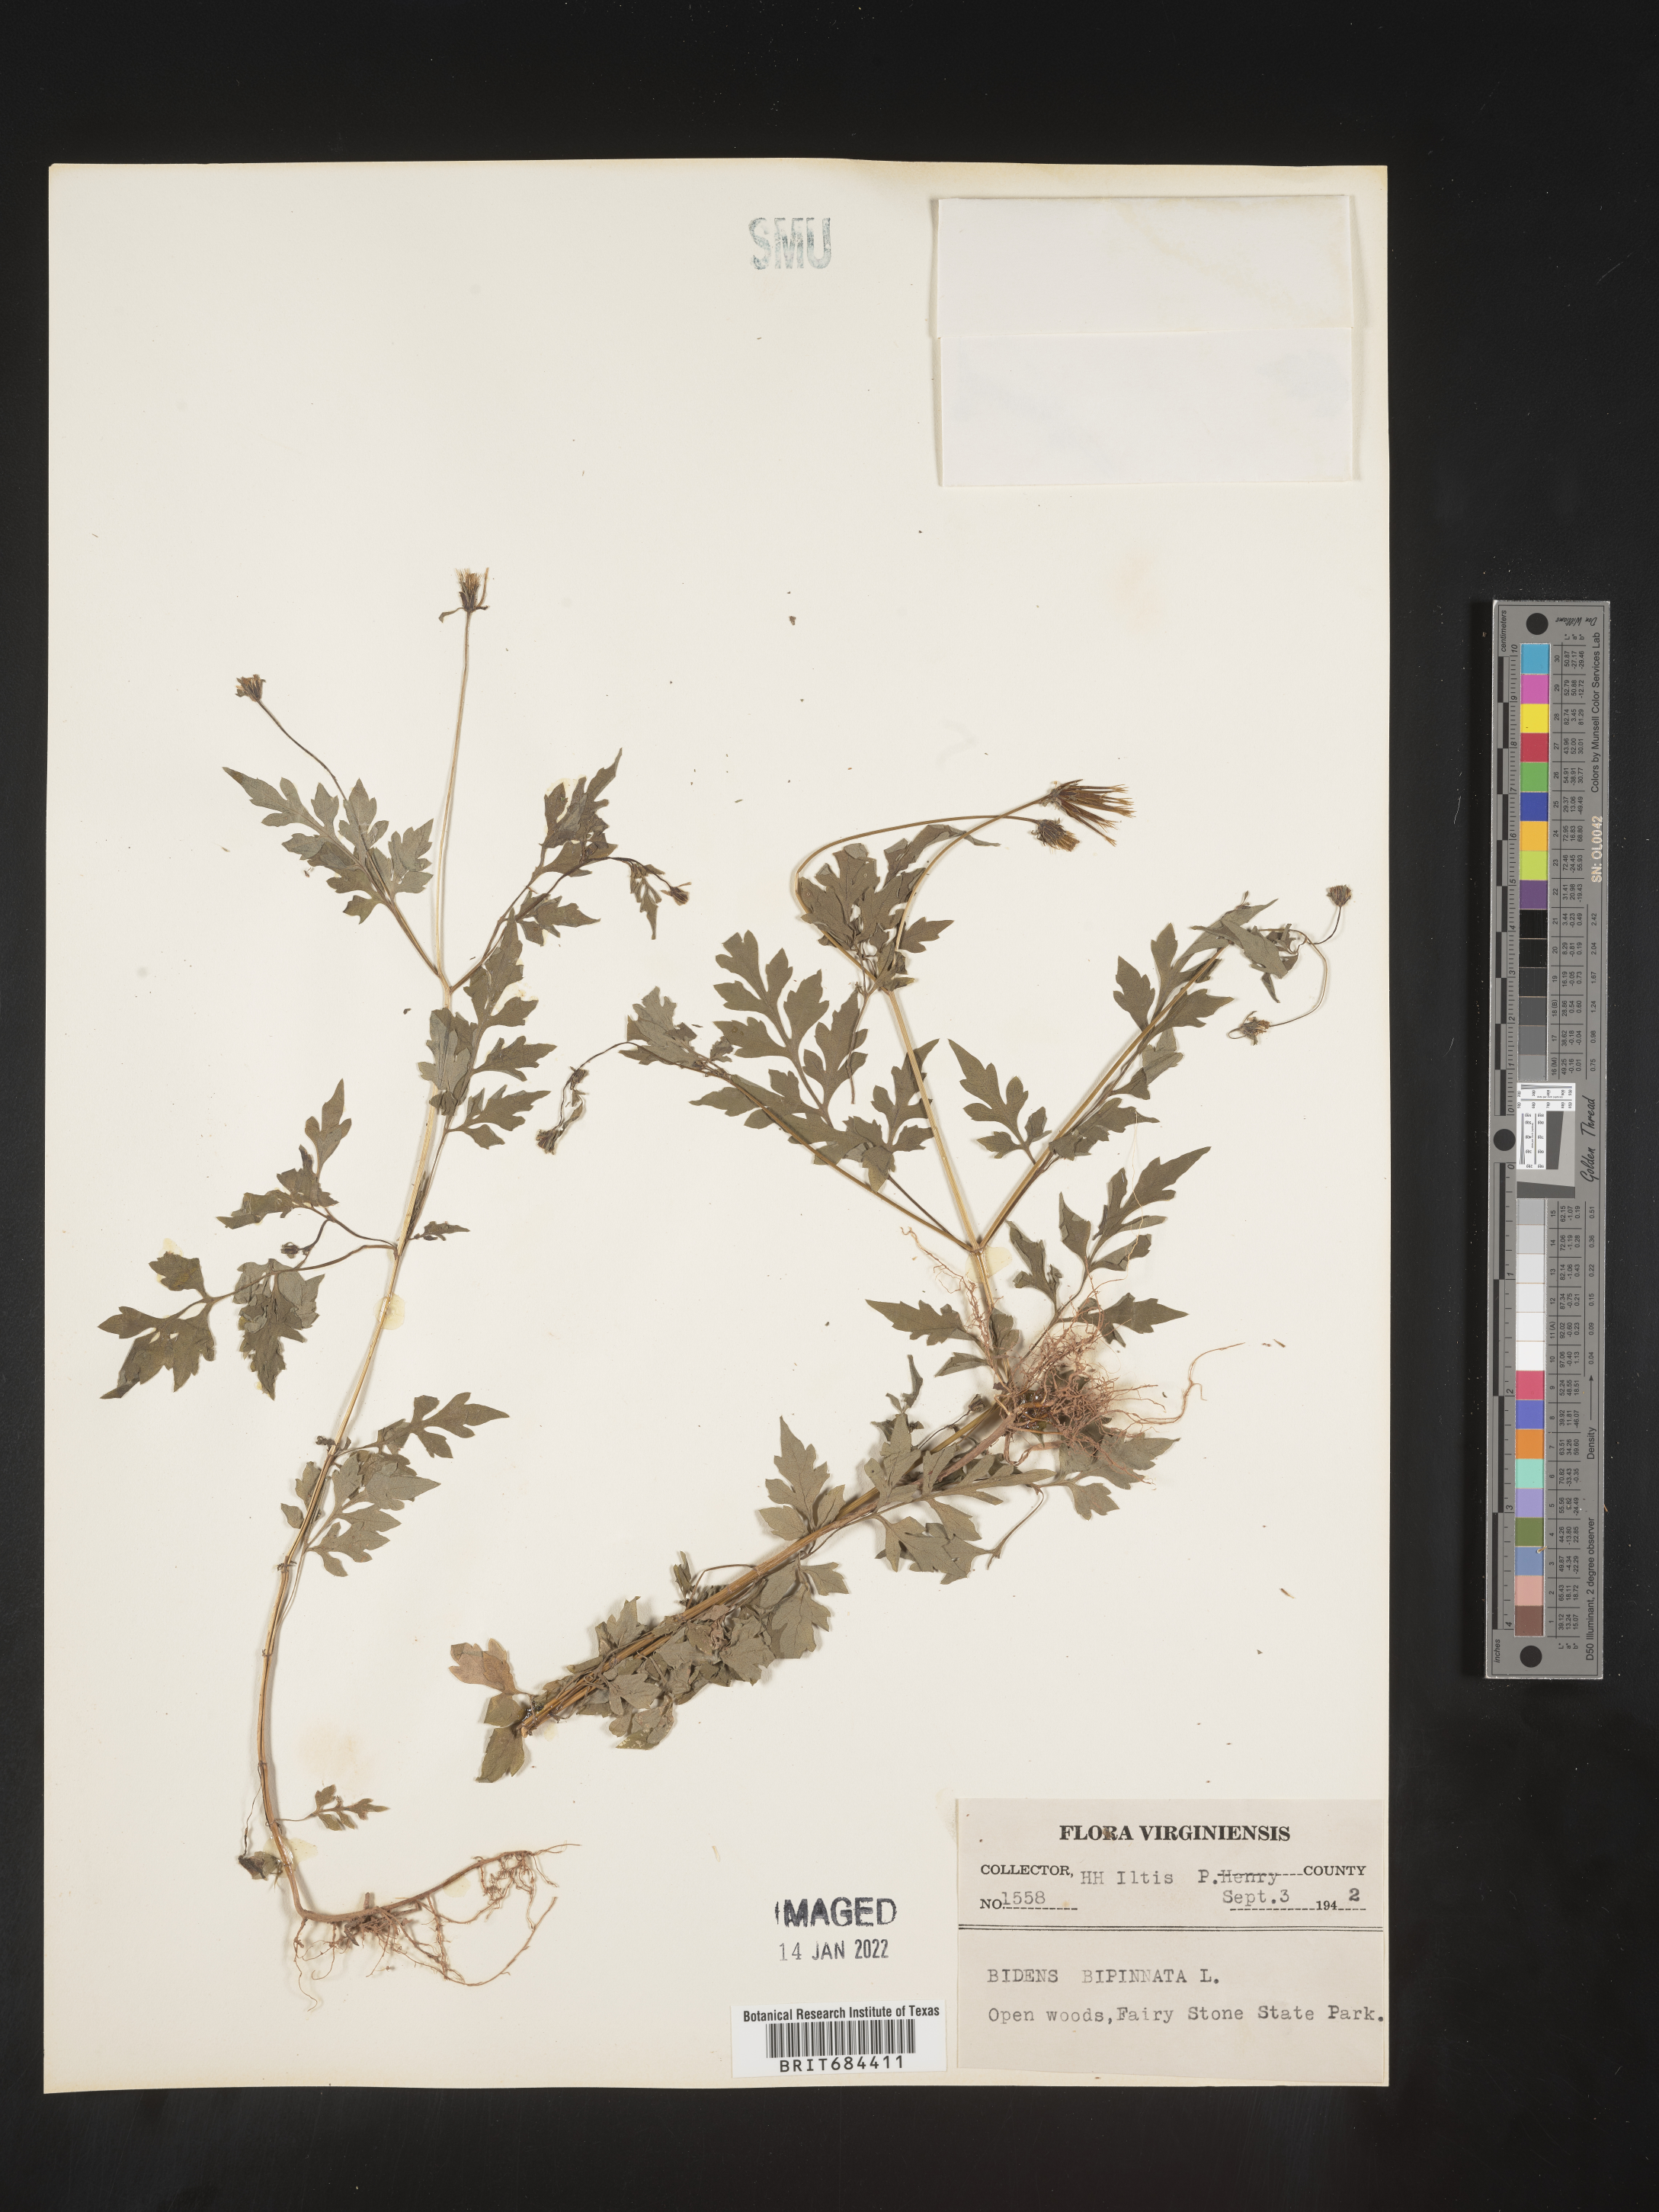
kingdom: Plantae
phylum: Tracheophyta
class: Magnoliopsida
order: Asterales
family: Asteraceae
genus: Bidens
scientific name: Bidens bipinnata
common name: Spanish-needles
